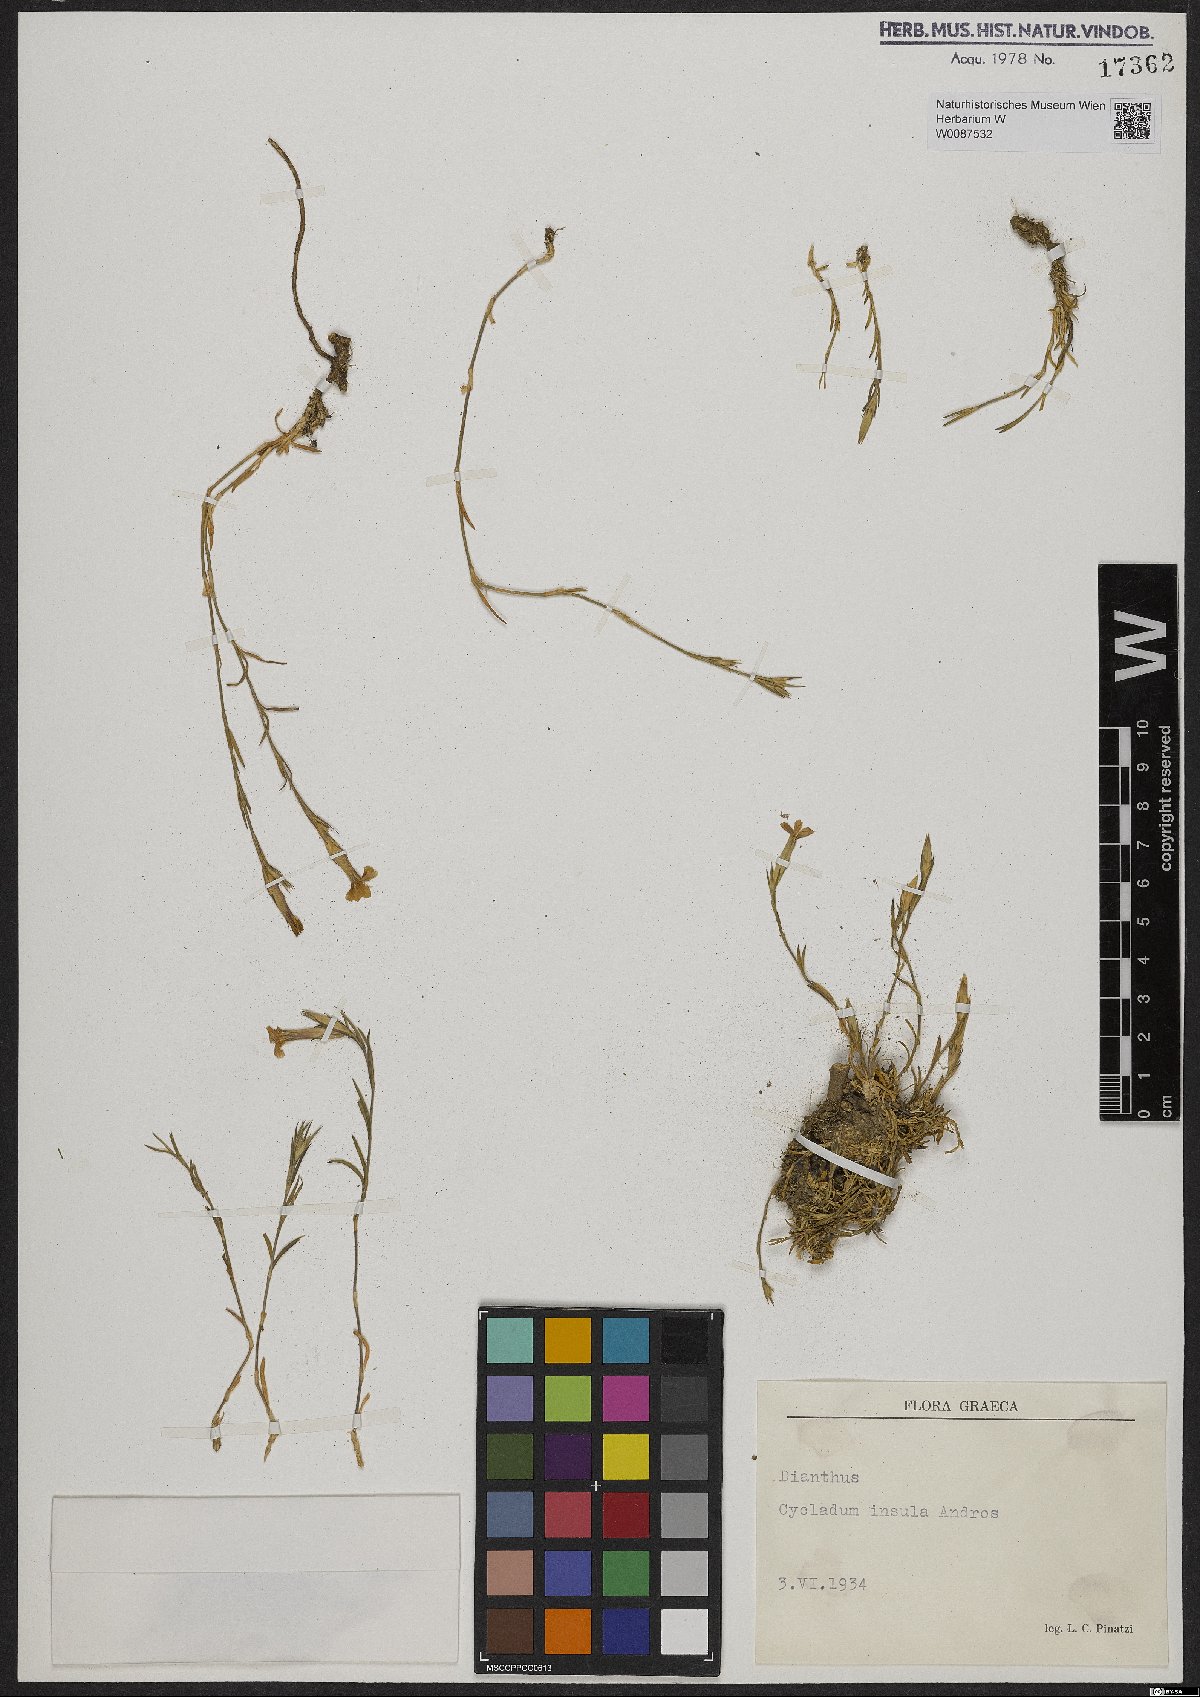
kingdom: Plantae
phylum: Tracheophyta
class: Magnoliopsida
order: Caryophyllales
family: Caryophyllaceae
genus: Dianthus
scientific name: Dianthus
